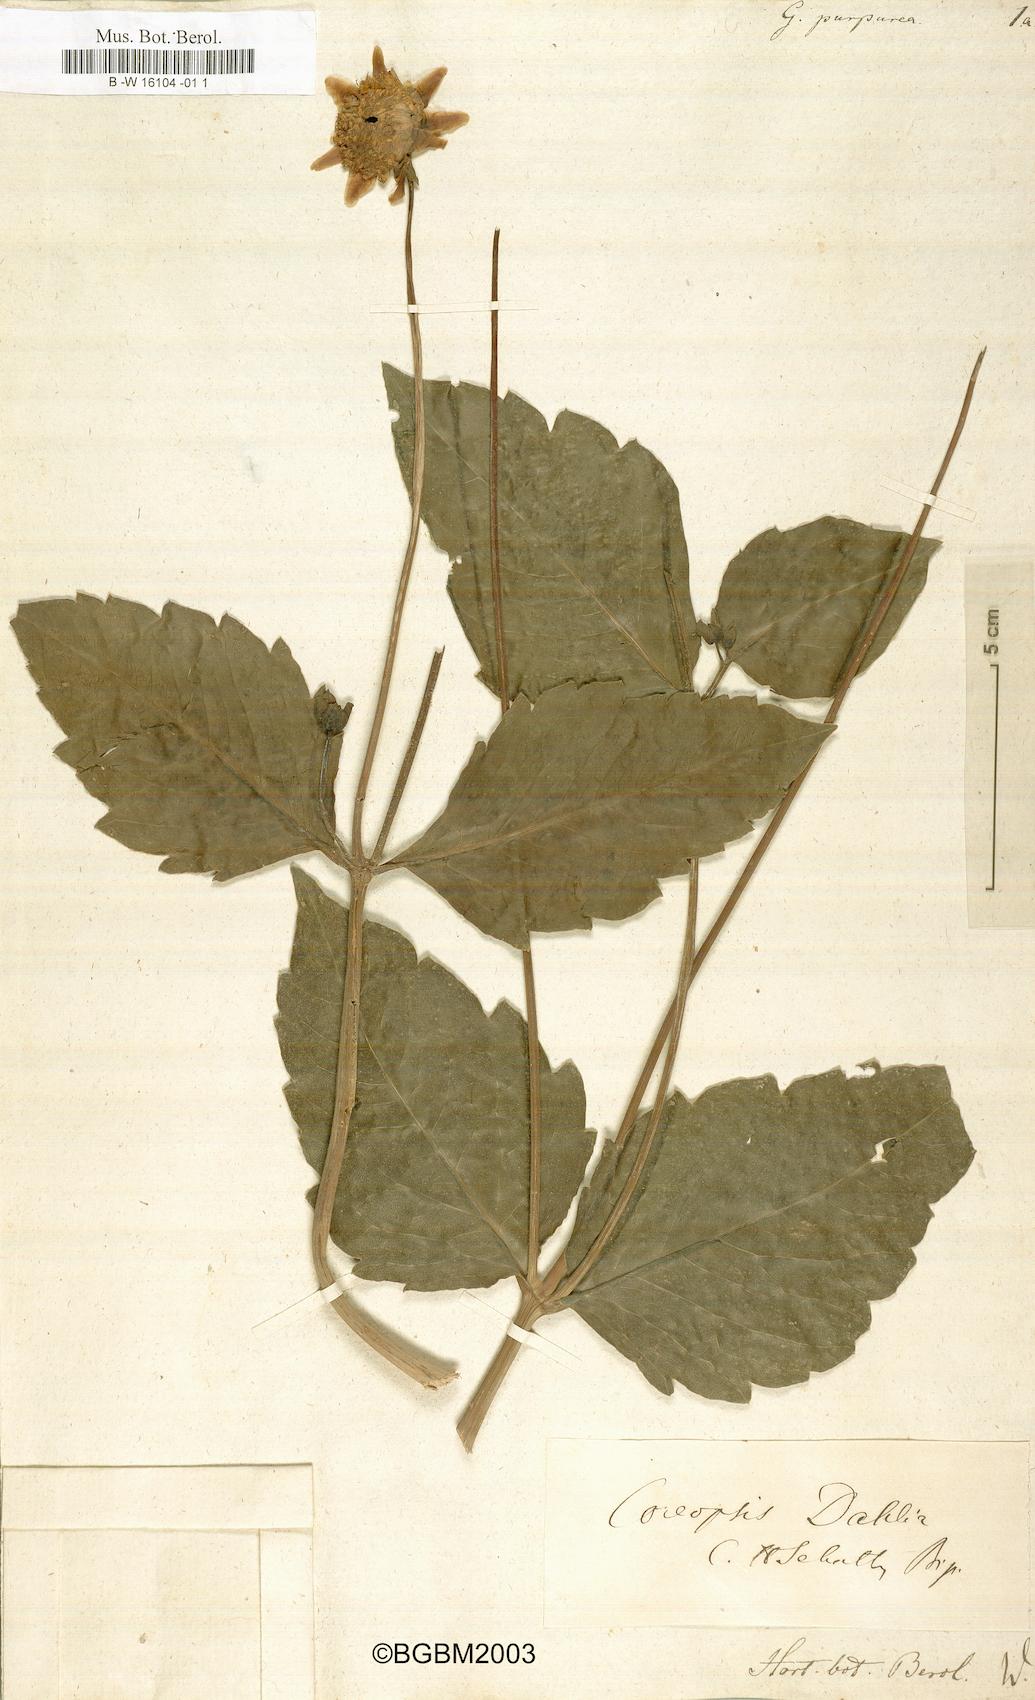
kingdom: Plantae
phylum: Tracheophyta
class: Magnoliopsida
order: Asterales
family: Asteraceae
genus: Dahlia
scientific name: Dahlia pinnata
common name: Dahlia
